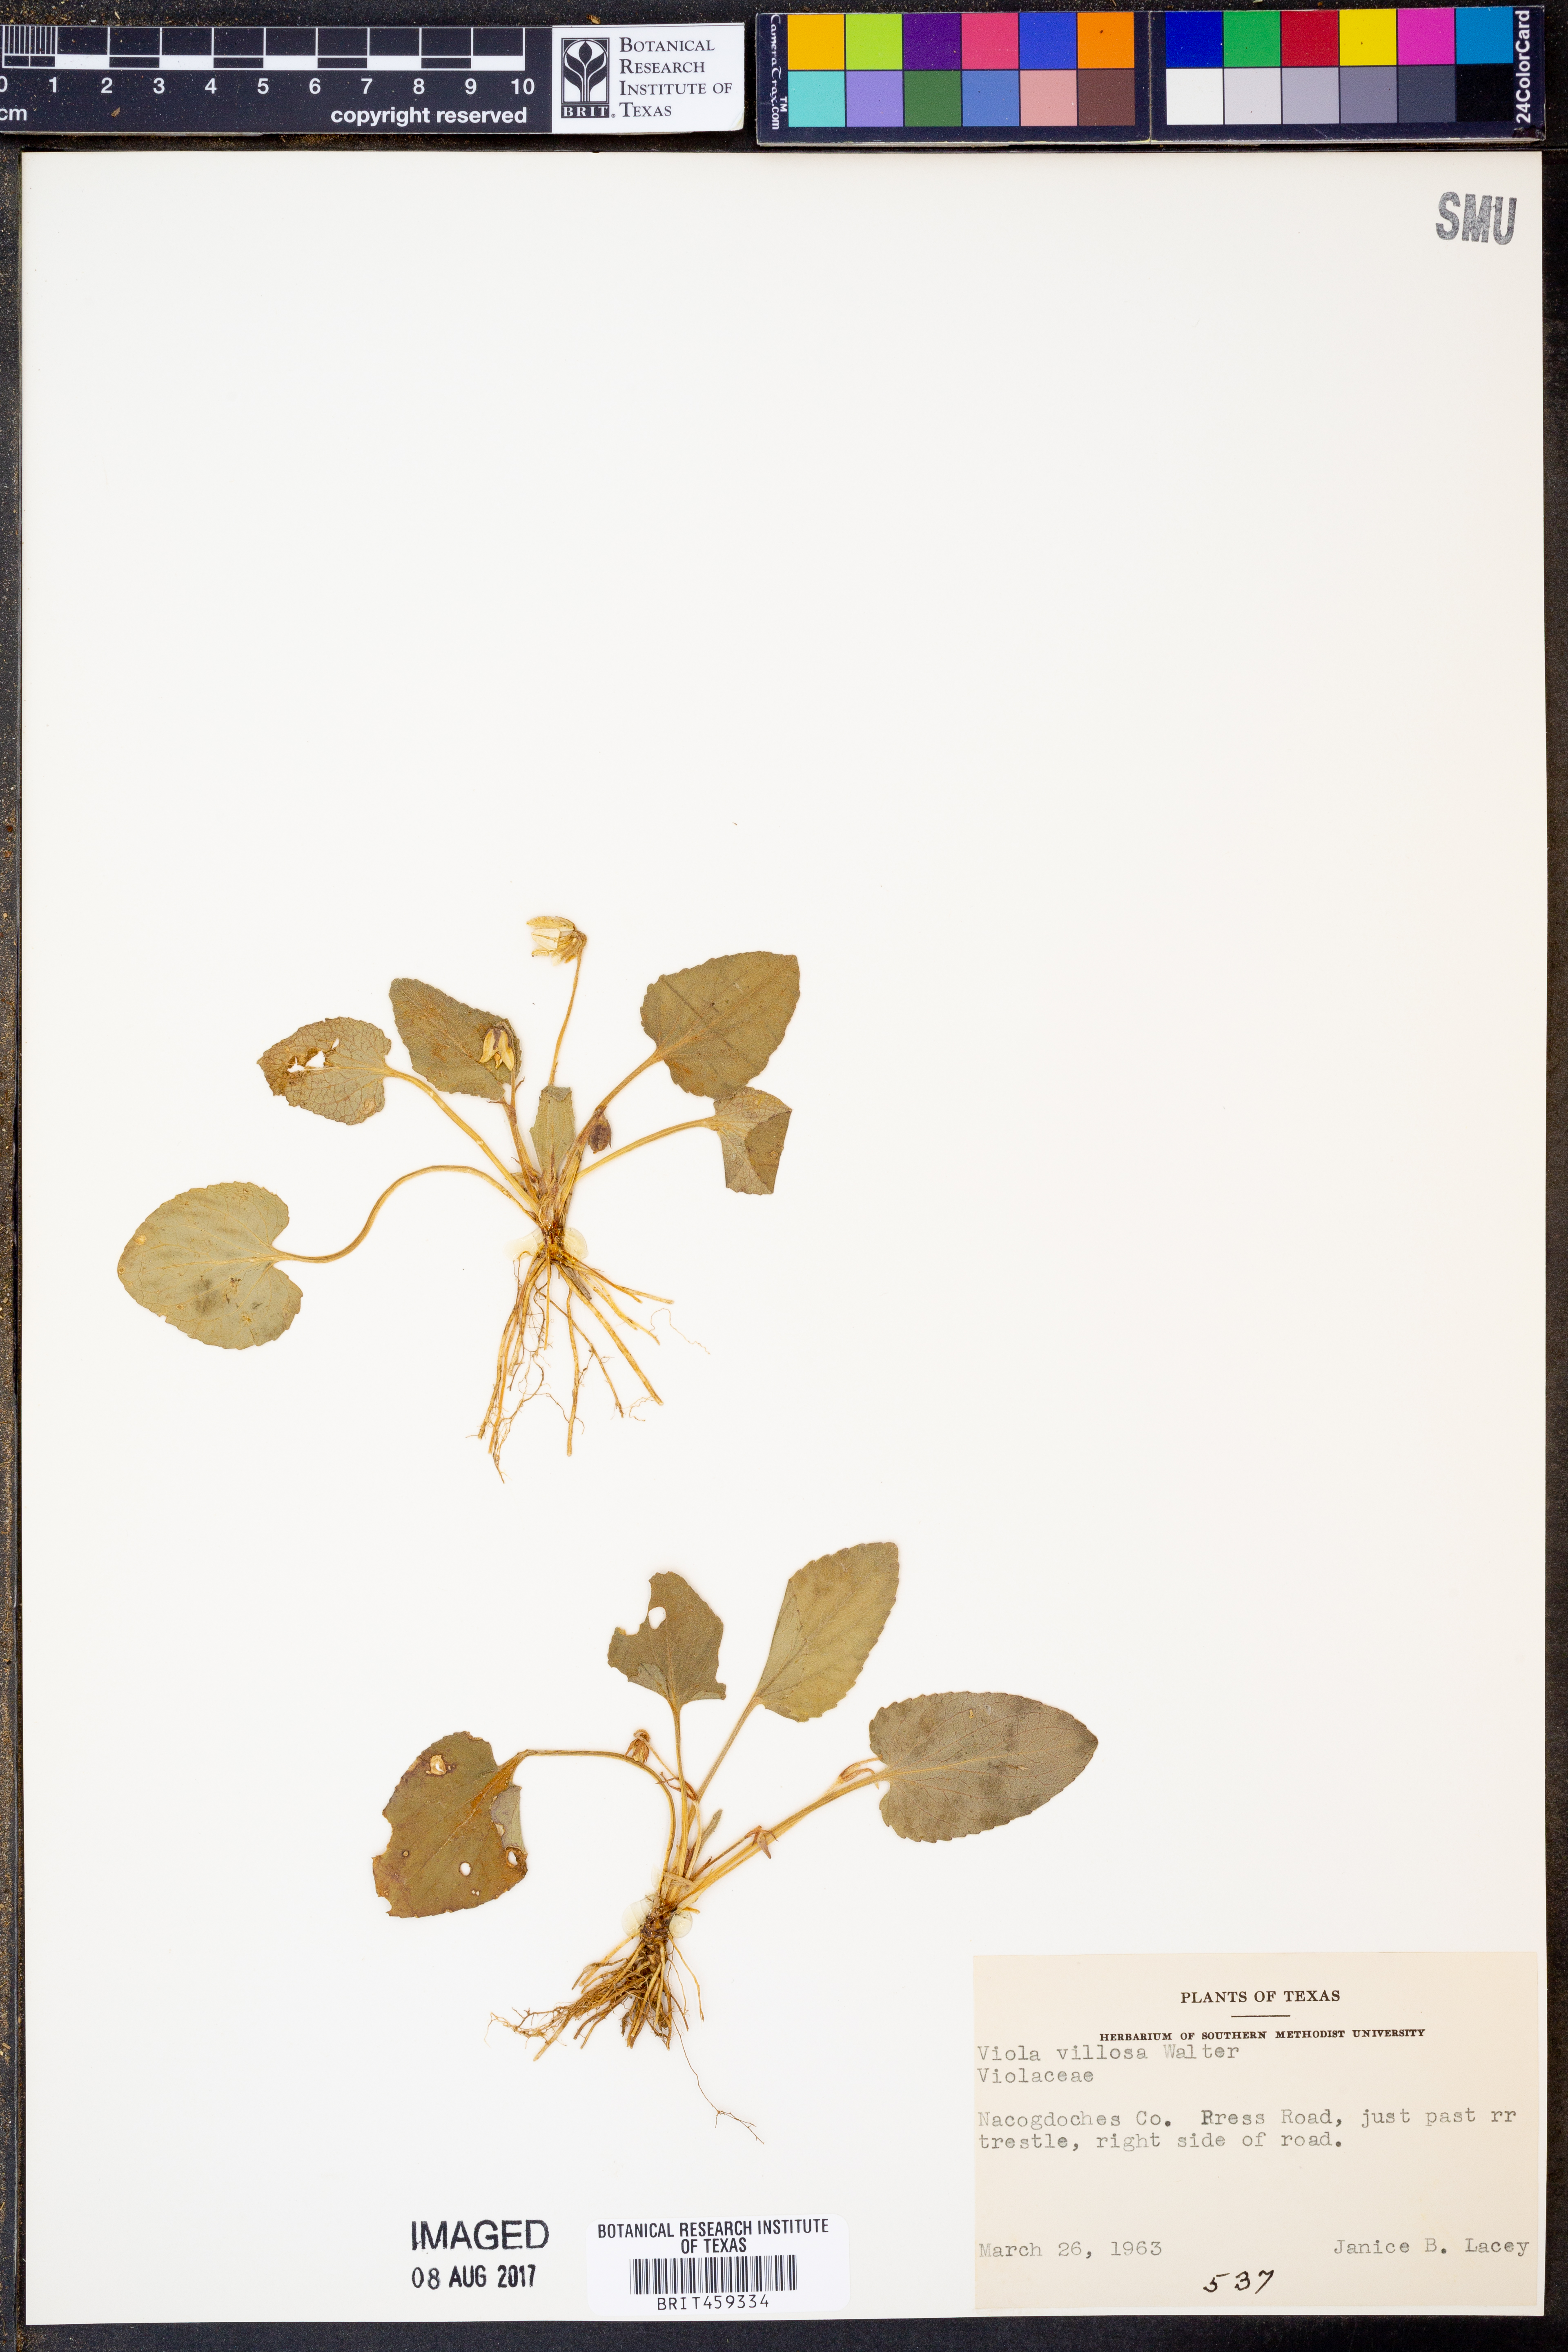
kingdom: Plantae
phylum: Tracheophyta
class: Magnoliopsida
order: Malpighiales
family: Violaceae
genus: Viola
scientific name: Viola villosa
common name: Carolina violet
